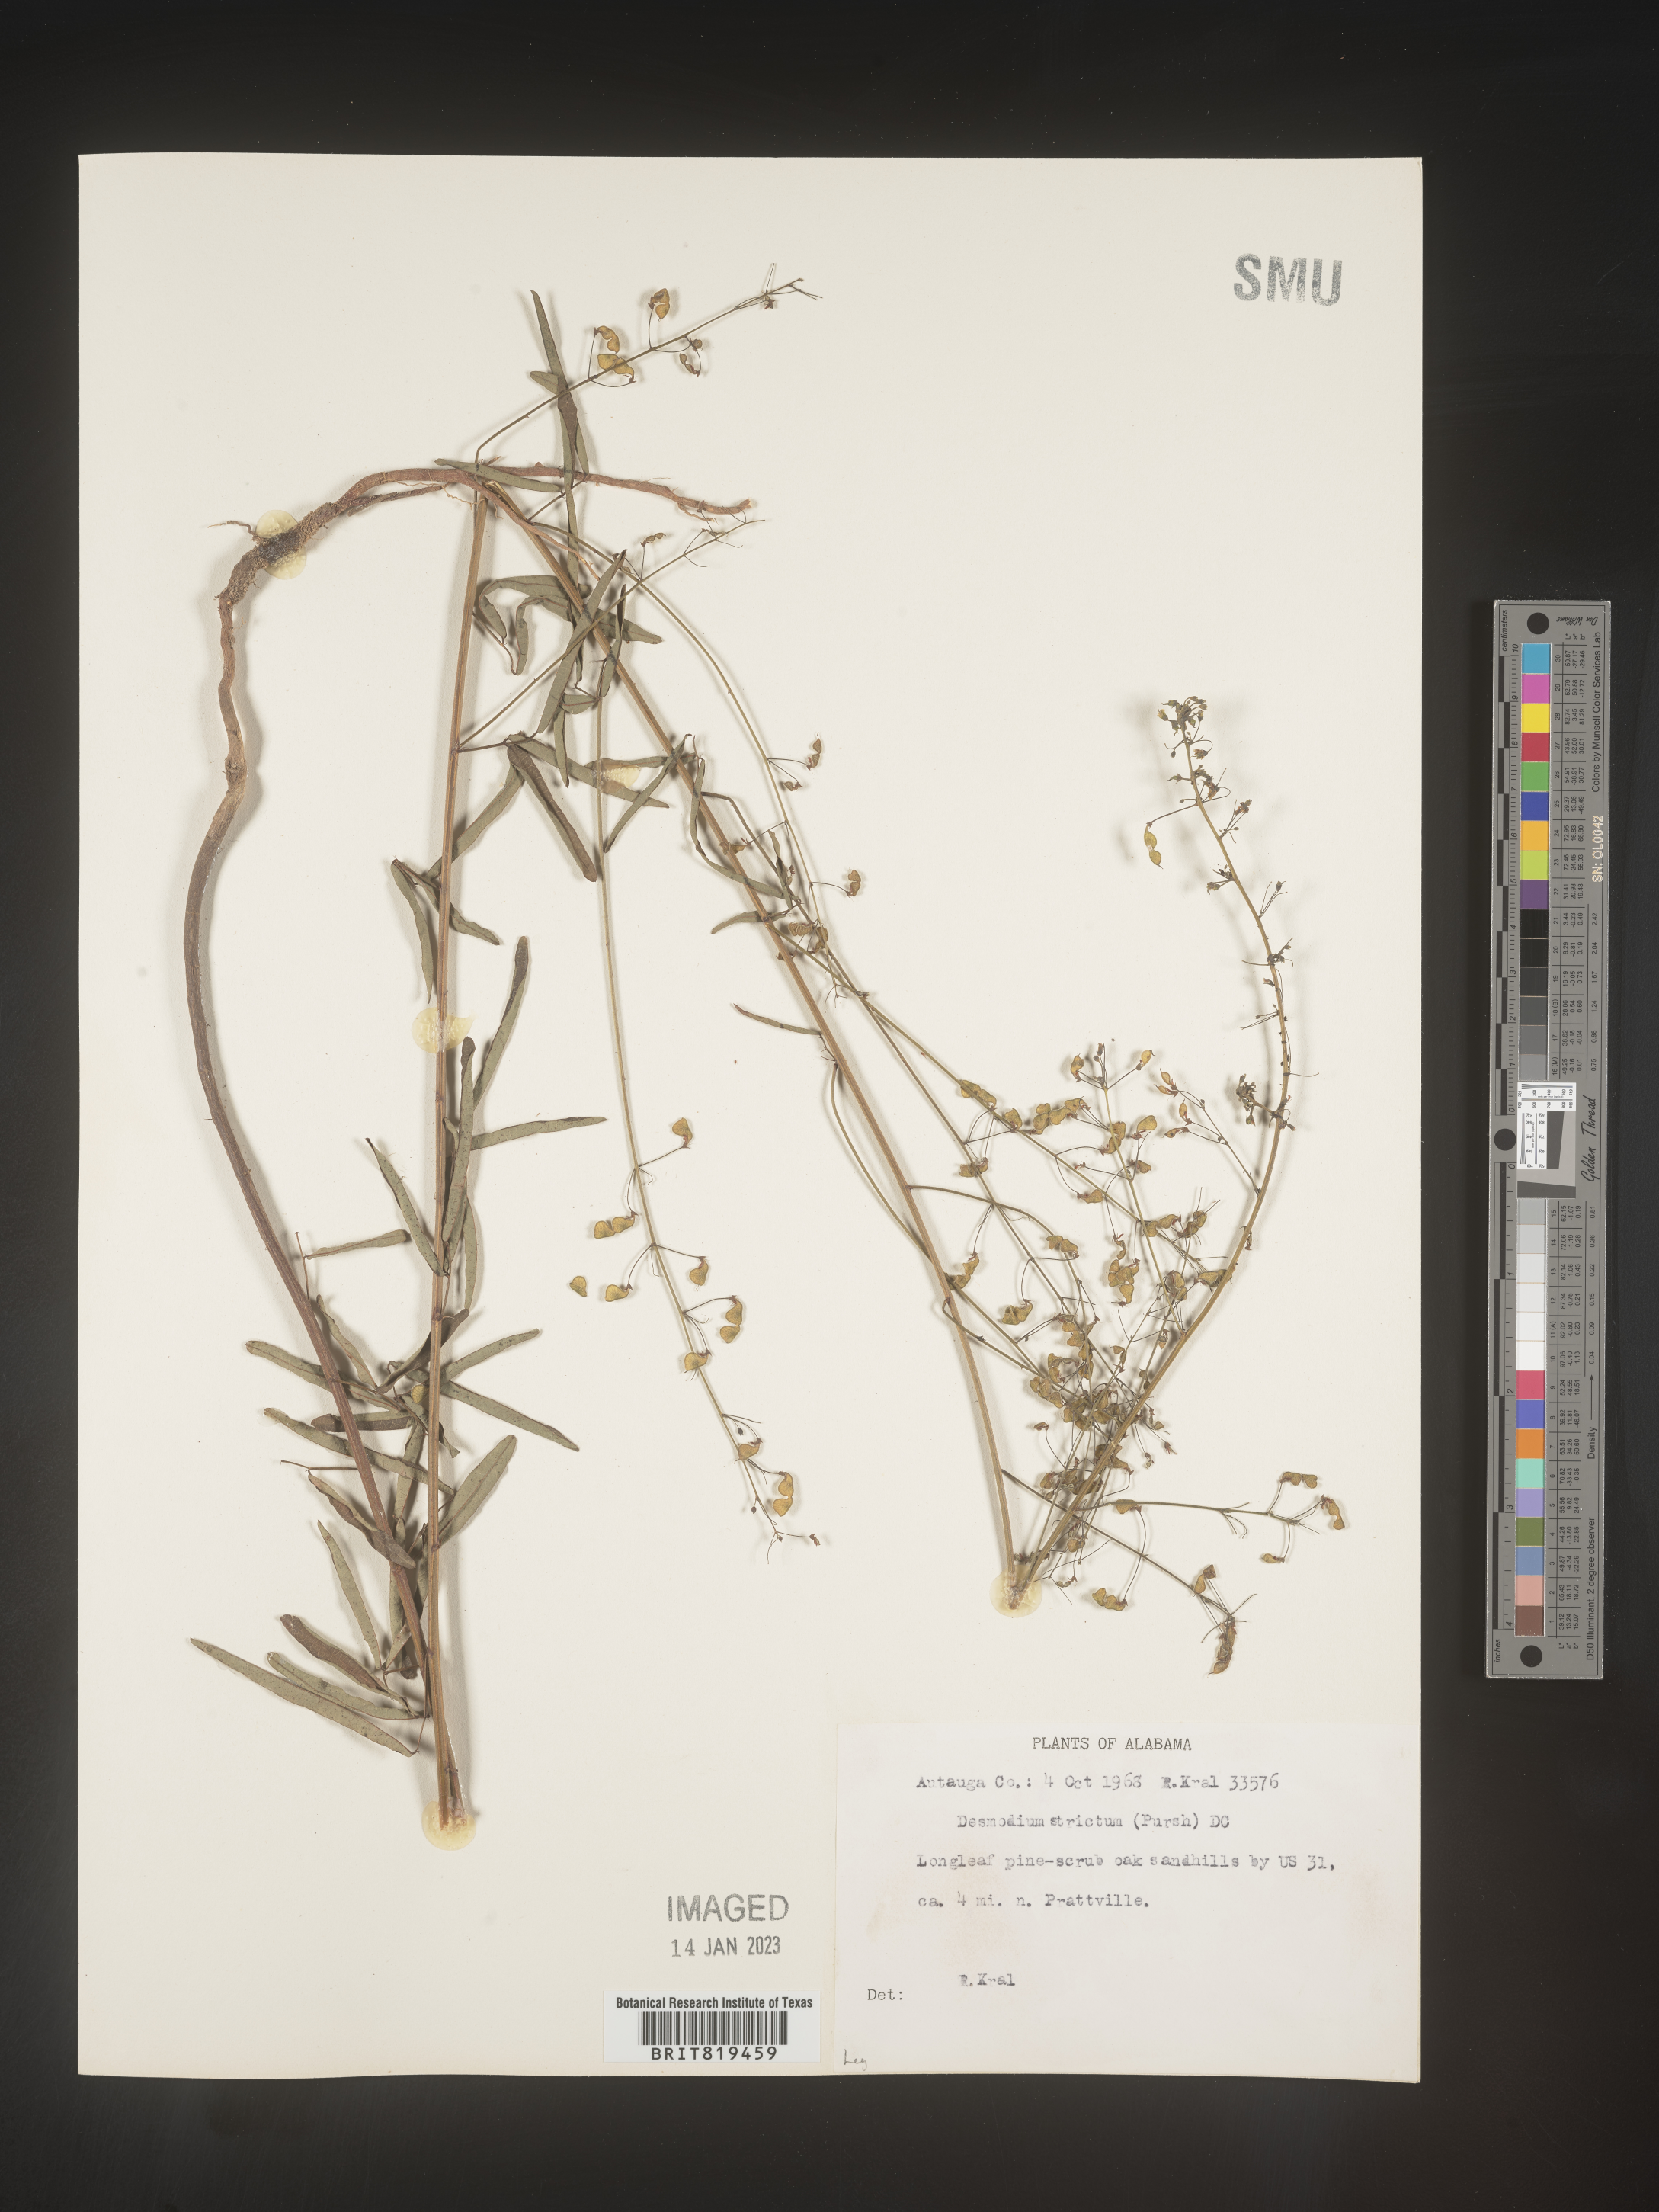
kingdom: Plantae
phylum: Tracheophyta
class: Magnoliopsida
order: Fabales
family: Fabaceae
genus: Desmodium
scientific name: Desmodium strictum
